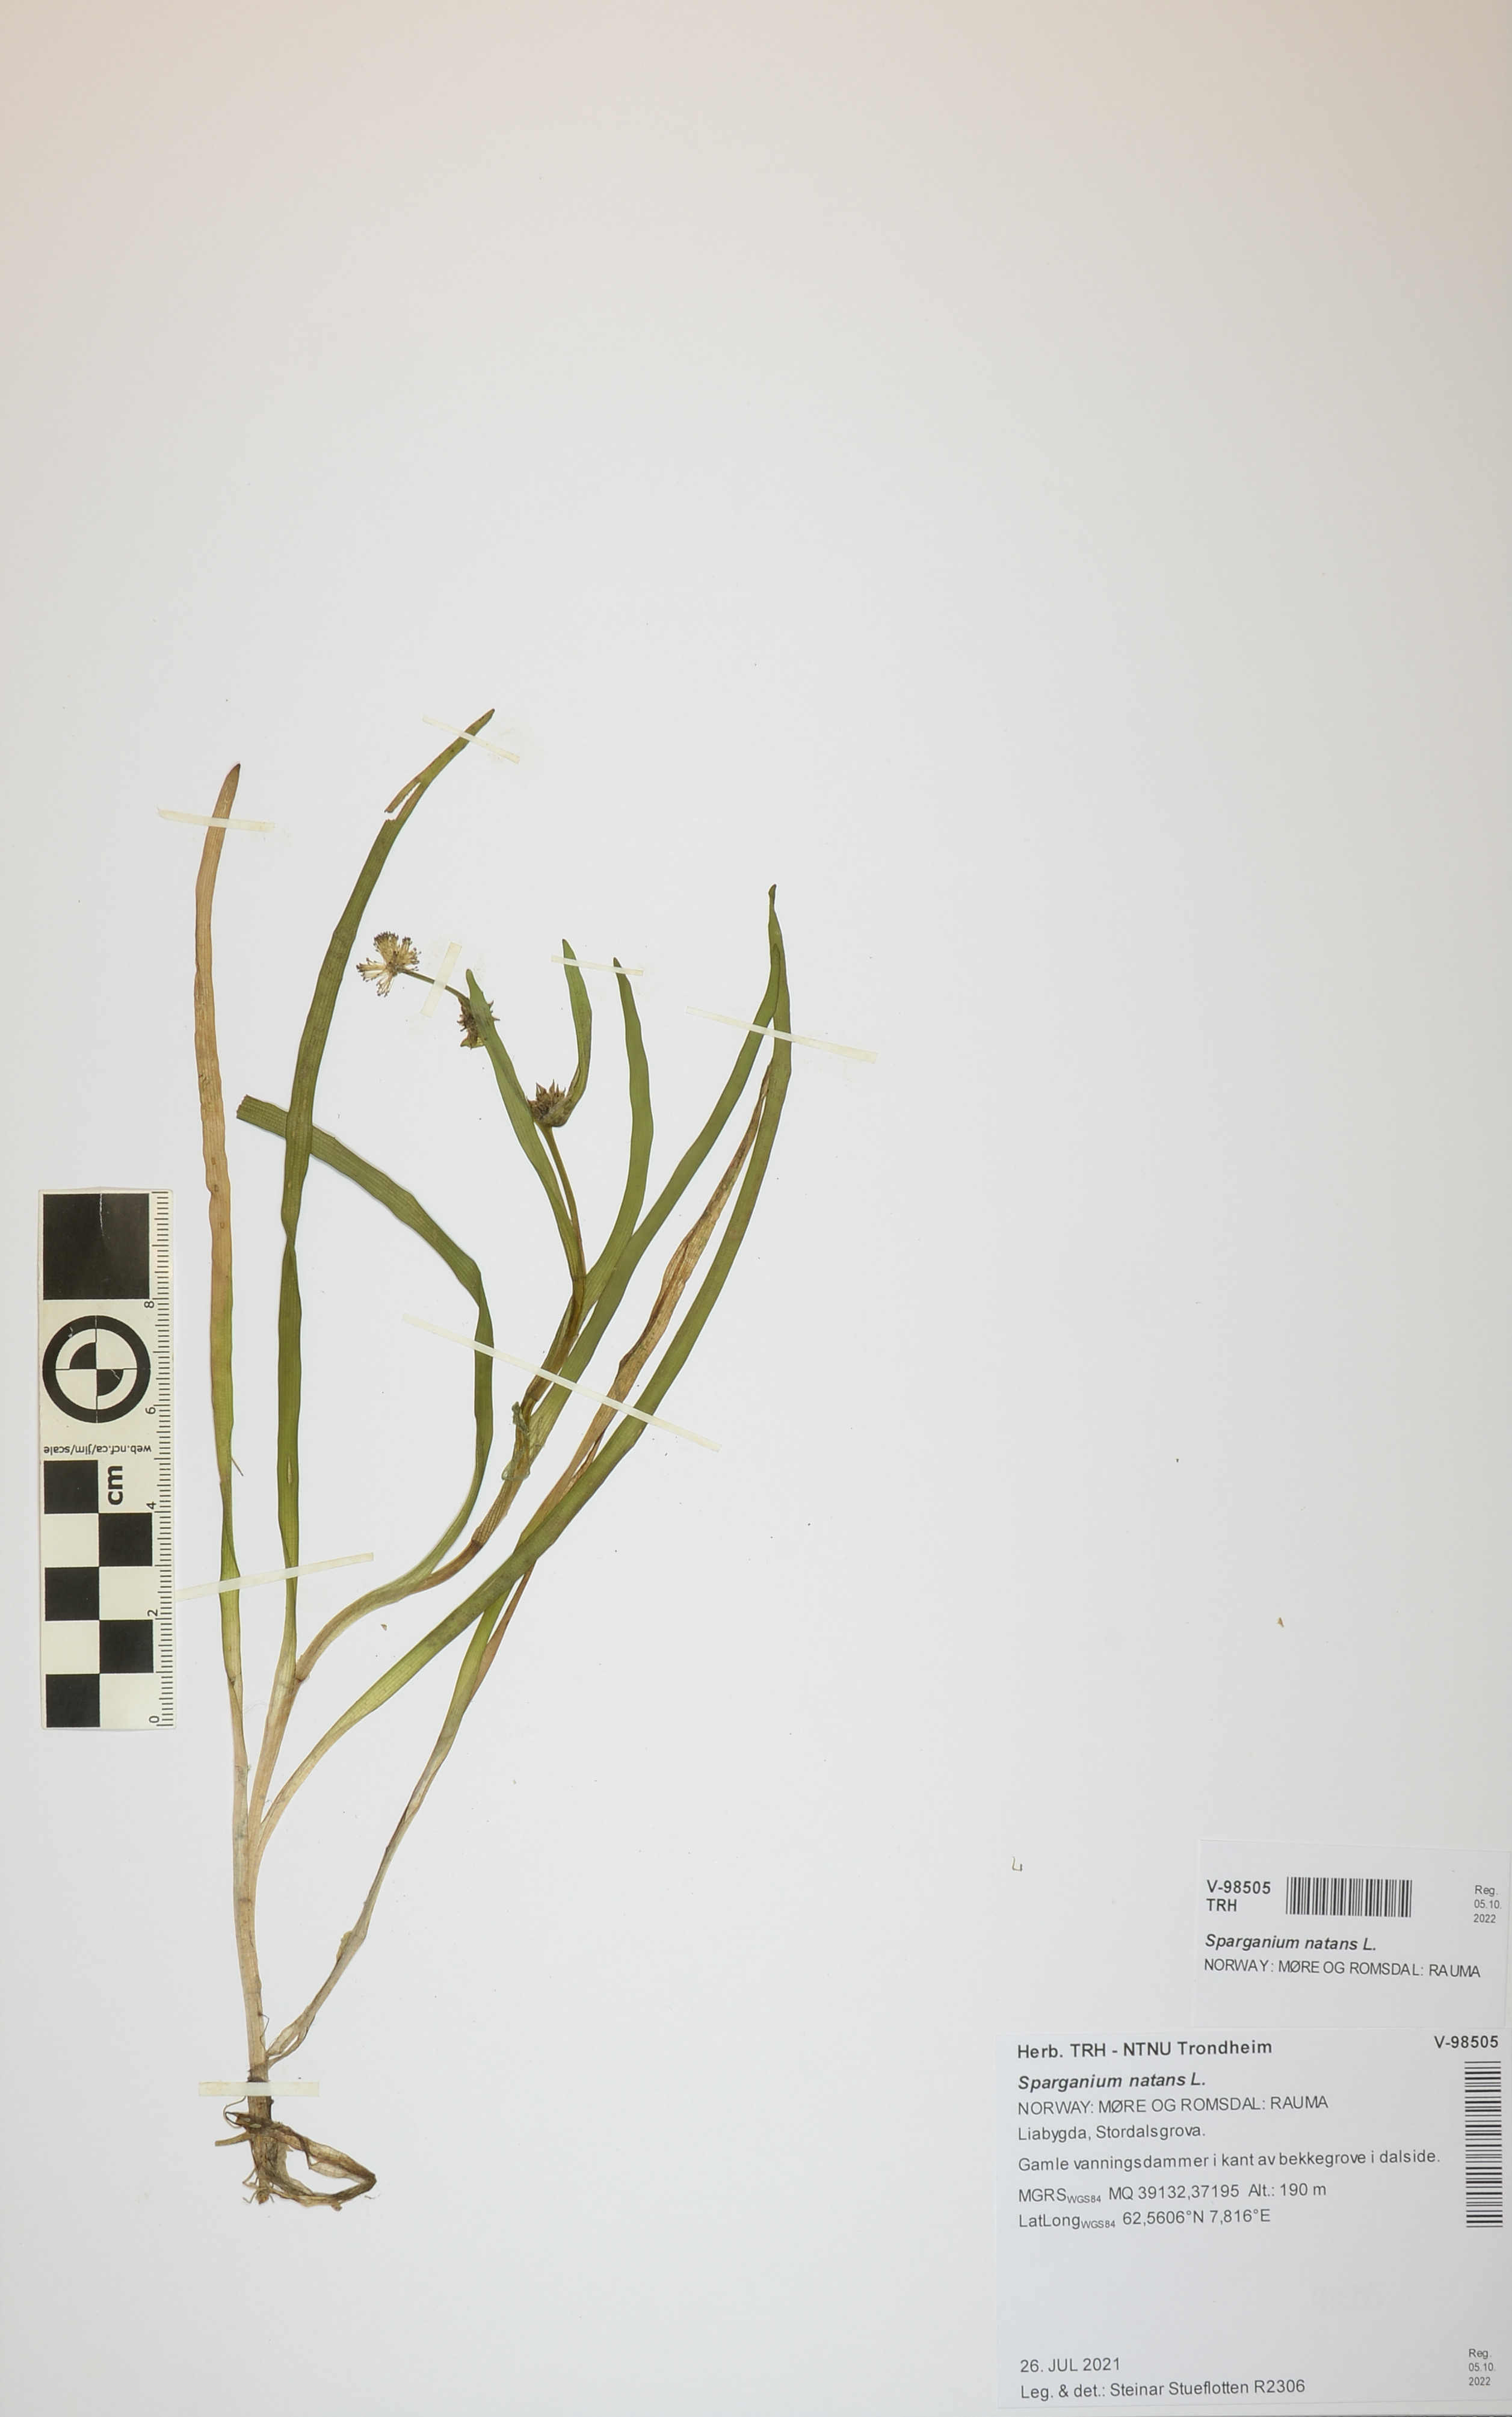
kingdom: Plantae
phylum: Tracheophyta
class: Liliopsida
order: Poales
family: Typhaceae
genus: Sparganium
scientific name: Sparganium natans
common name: Least bur-reed
